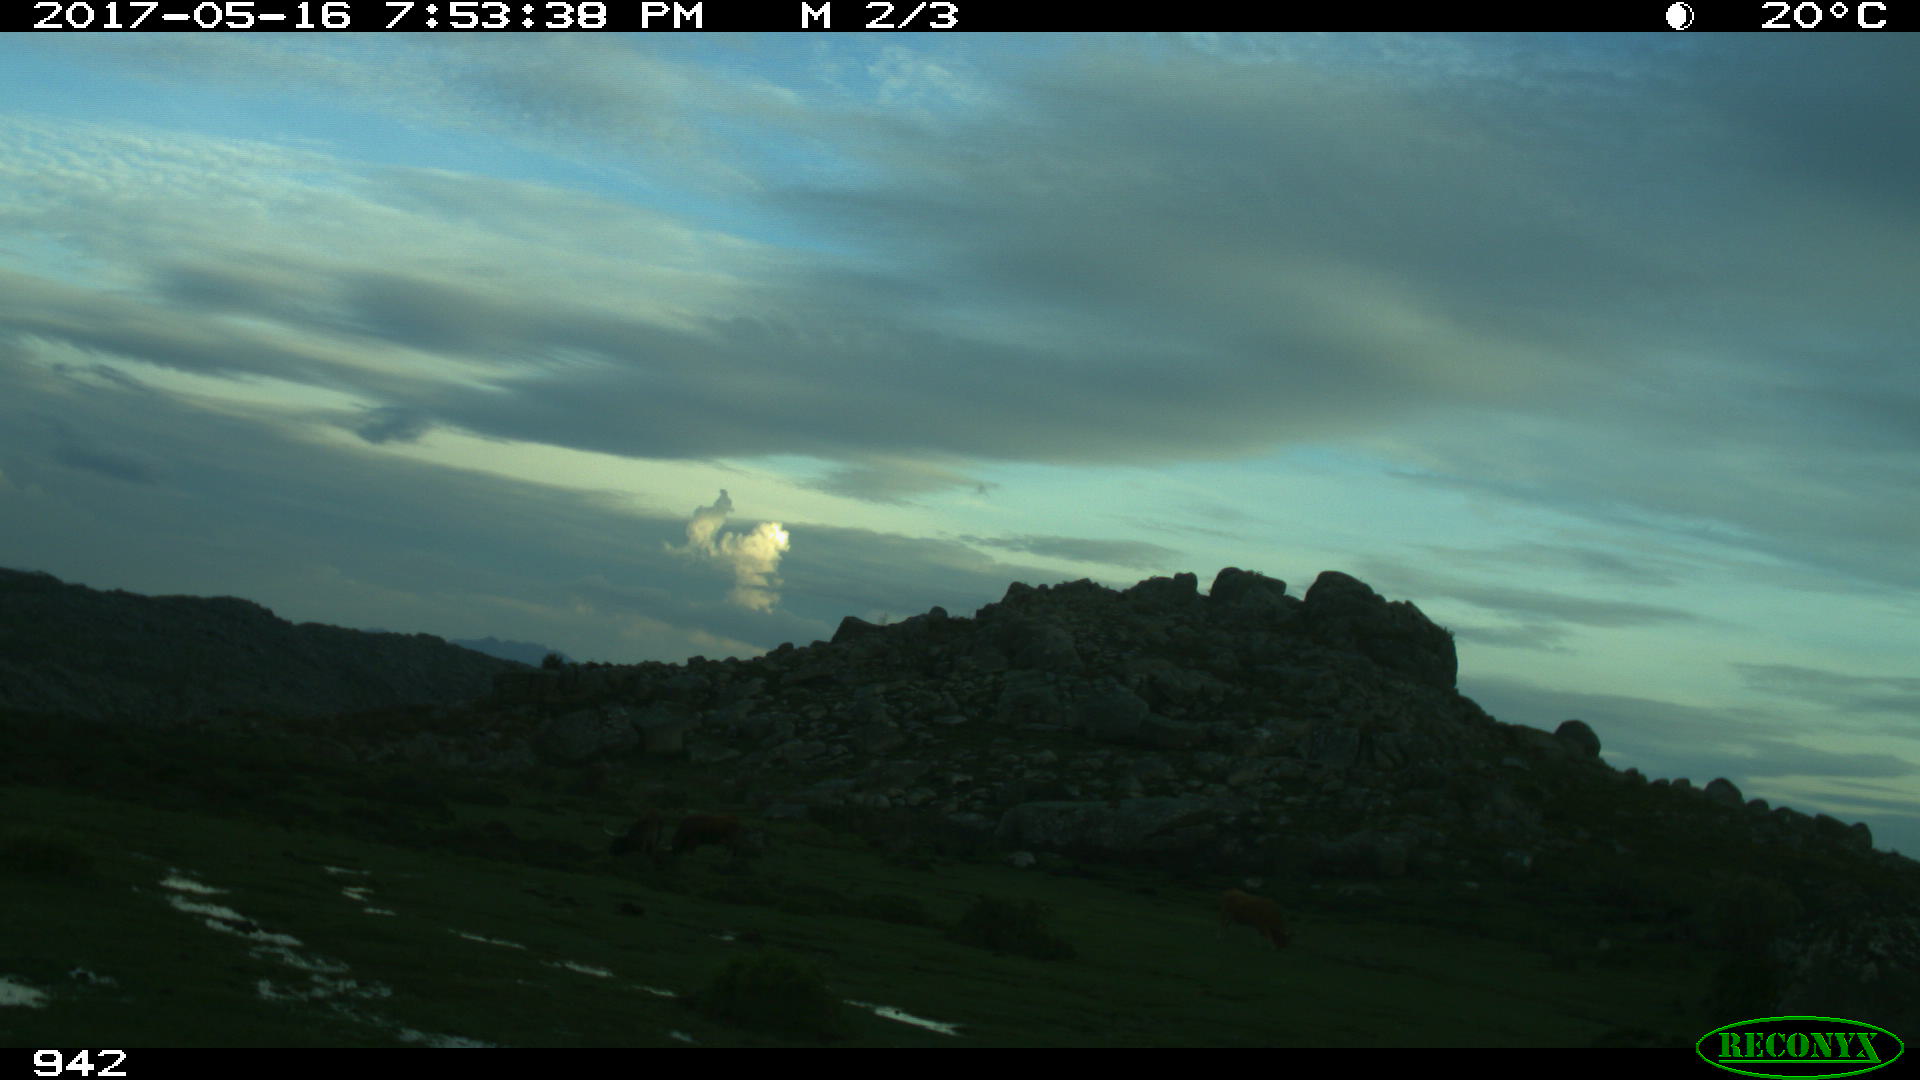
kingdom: Animalia
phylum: Chordata
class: Mammalia
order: Artiodactyla
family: Bovidae
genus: Bos
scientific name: Bos taurus
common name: Domesticated cattle
